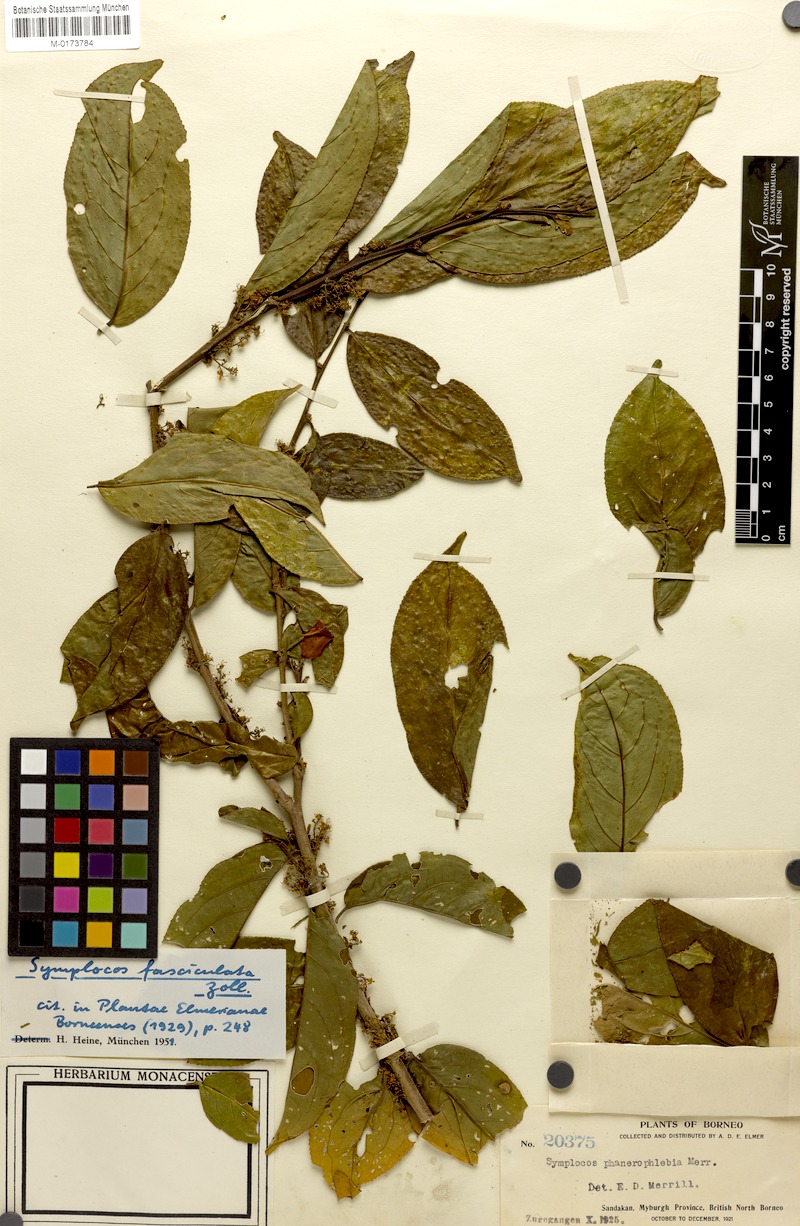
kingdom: Plantae
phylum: Tracheophyta
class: Magnoliopsida
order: Ericales
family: Symplocaceae
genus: Symplocos
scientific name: Symplocos fasciculata
